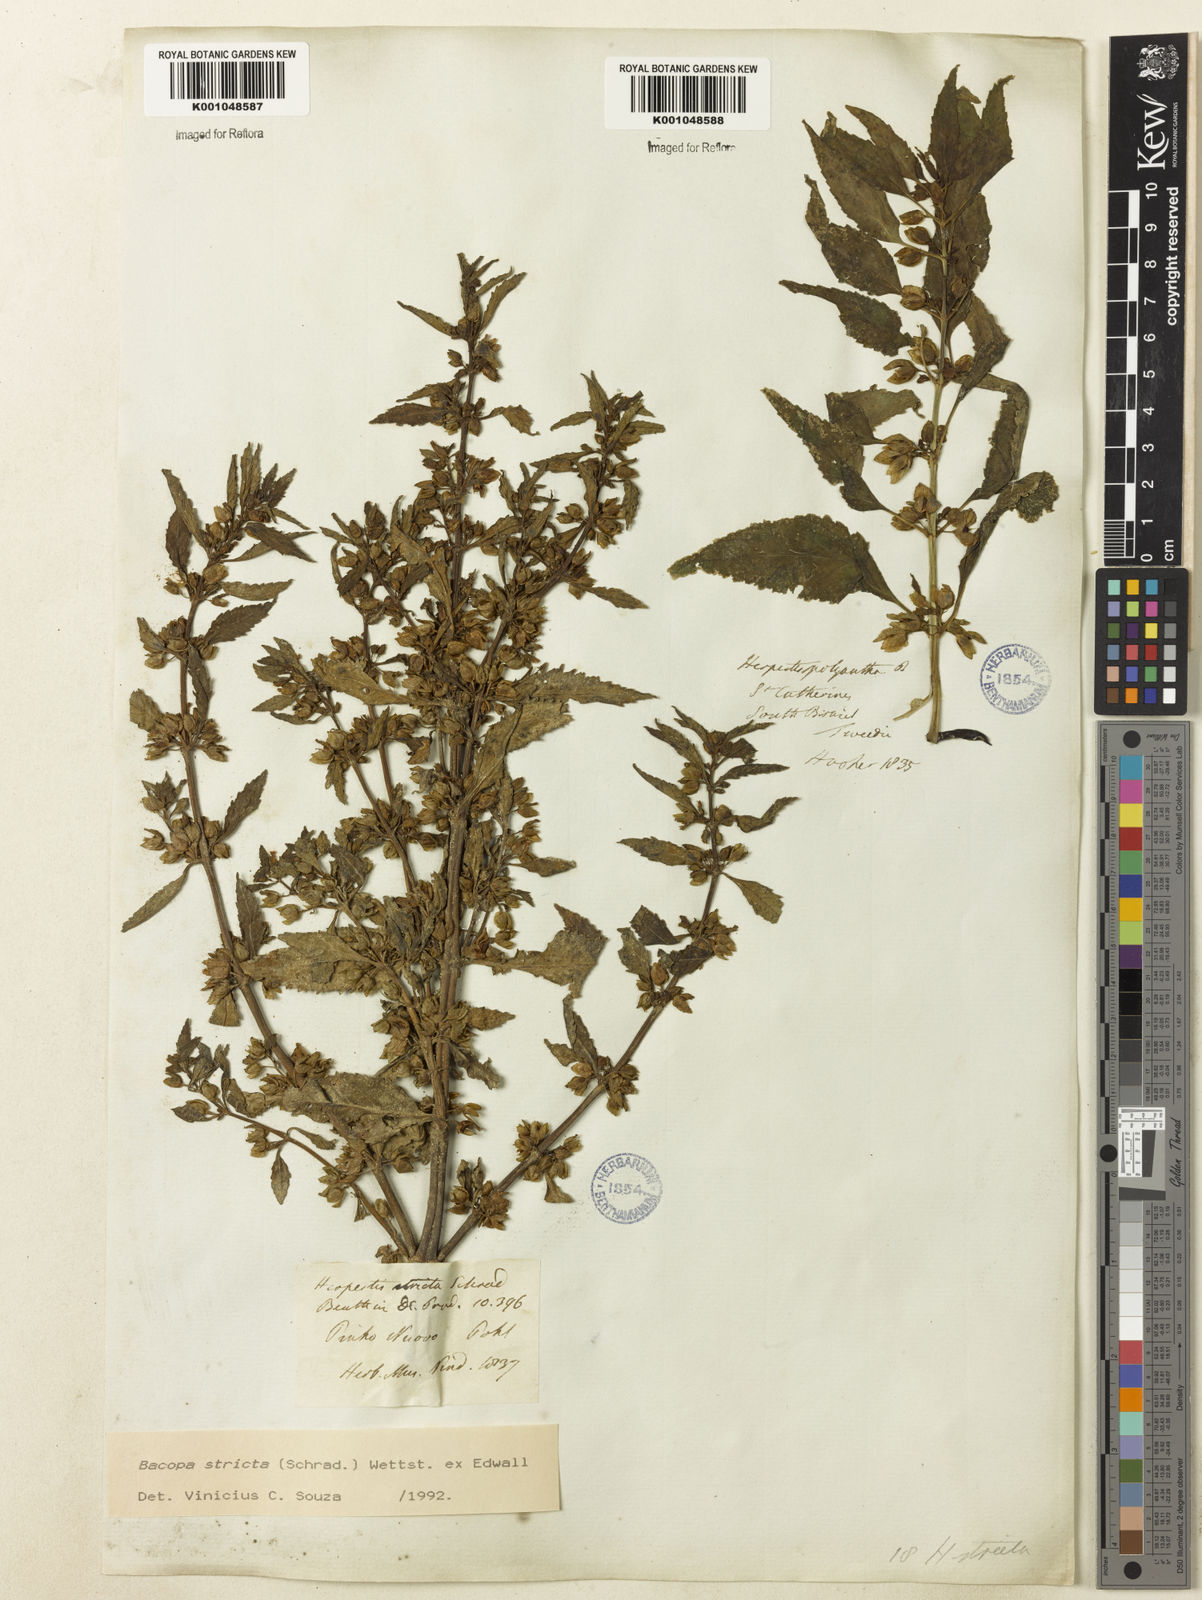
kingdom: Plantae
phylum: Tracheophyta
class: Magnoliopsida
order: Lamiales
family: Plantaginaceae
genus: Bacopa
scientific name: Bacopa stricta
